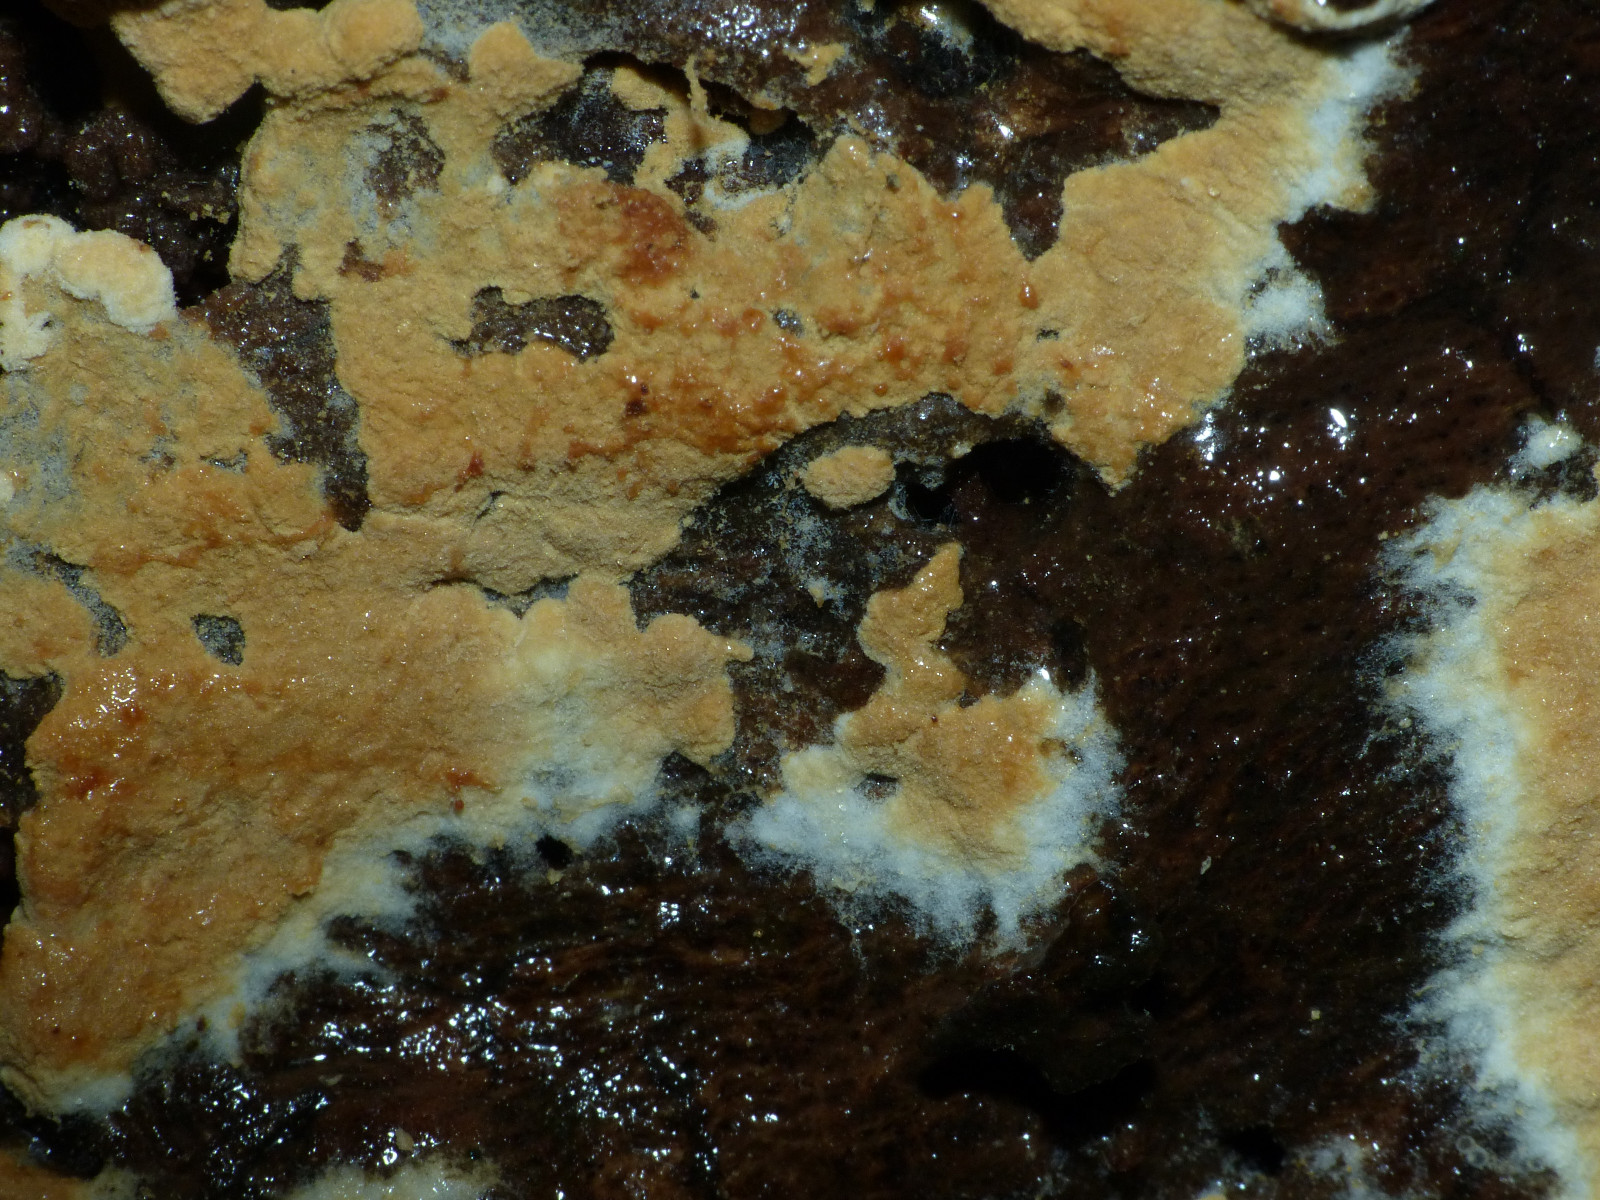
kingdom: Fungi
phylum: Basidiomycota
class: Agaricomycetes
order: Cantharellales
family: Botryobasidiaceae
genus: Botryobasidium
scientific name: Botryobasidium aureum
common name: gylden spindhinde
